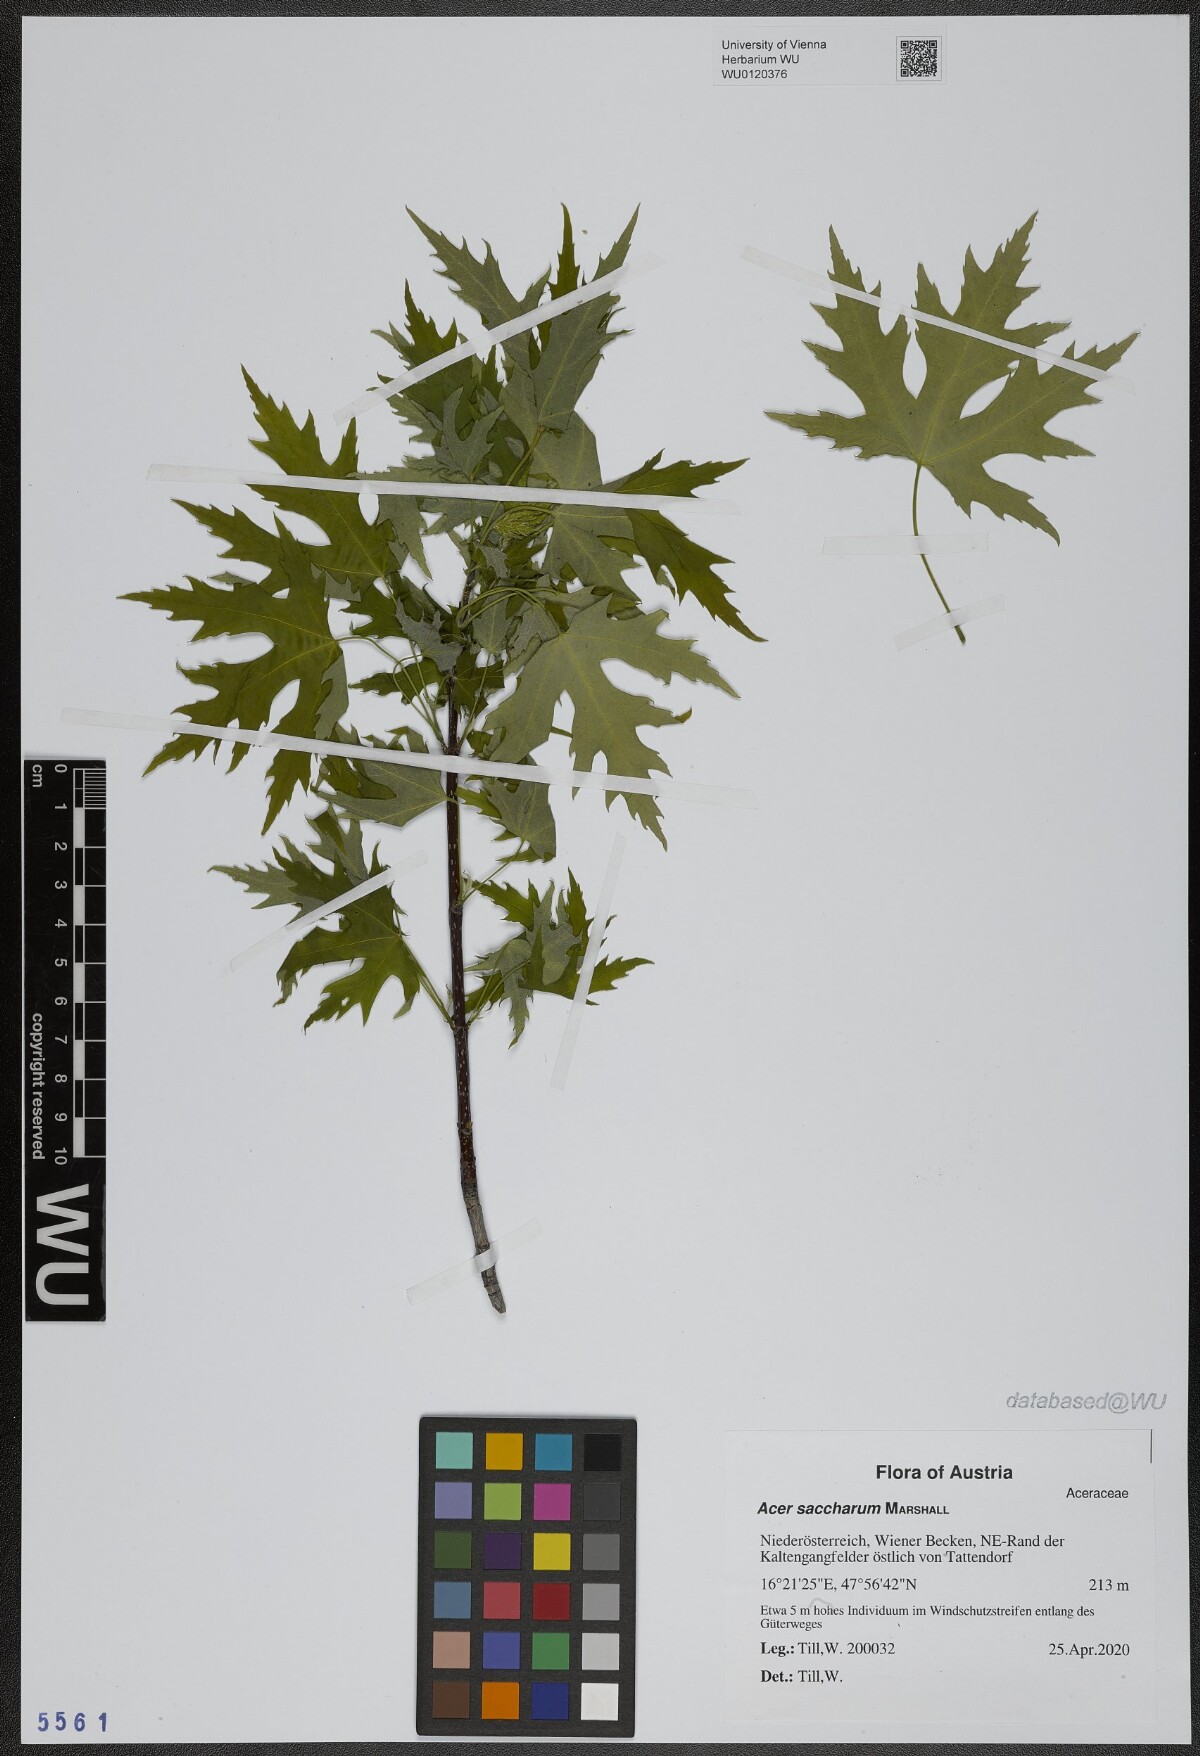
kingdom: Plantae
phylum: Tracheophyta
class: Magnoliopsida
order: Sapindales
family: Sapindaceae
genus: Acer
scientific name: Acer saccharum
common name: Sugar maple
